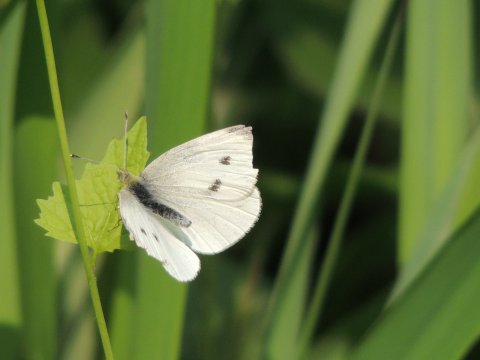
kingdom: Animalia
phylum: Arthropoda
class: Insecta
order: Lepidoptera
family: Pieridae
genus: Pieris
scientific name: Pieris rapae
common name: Cabbage White
